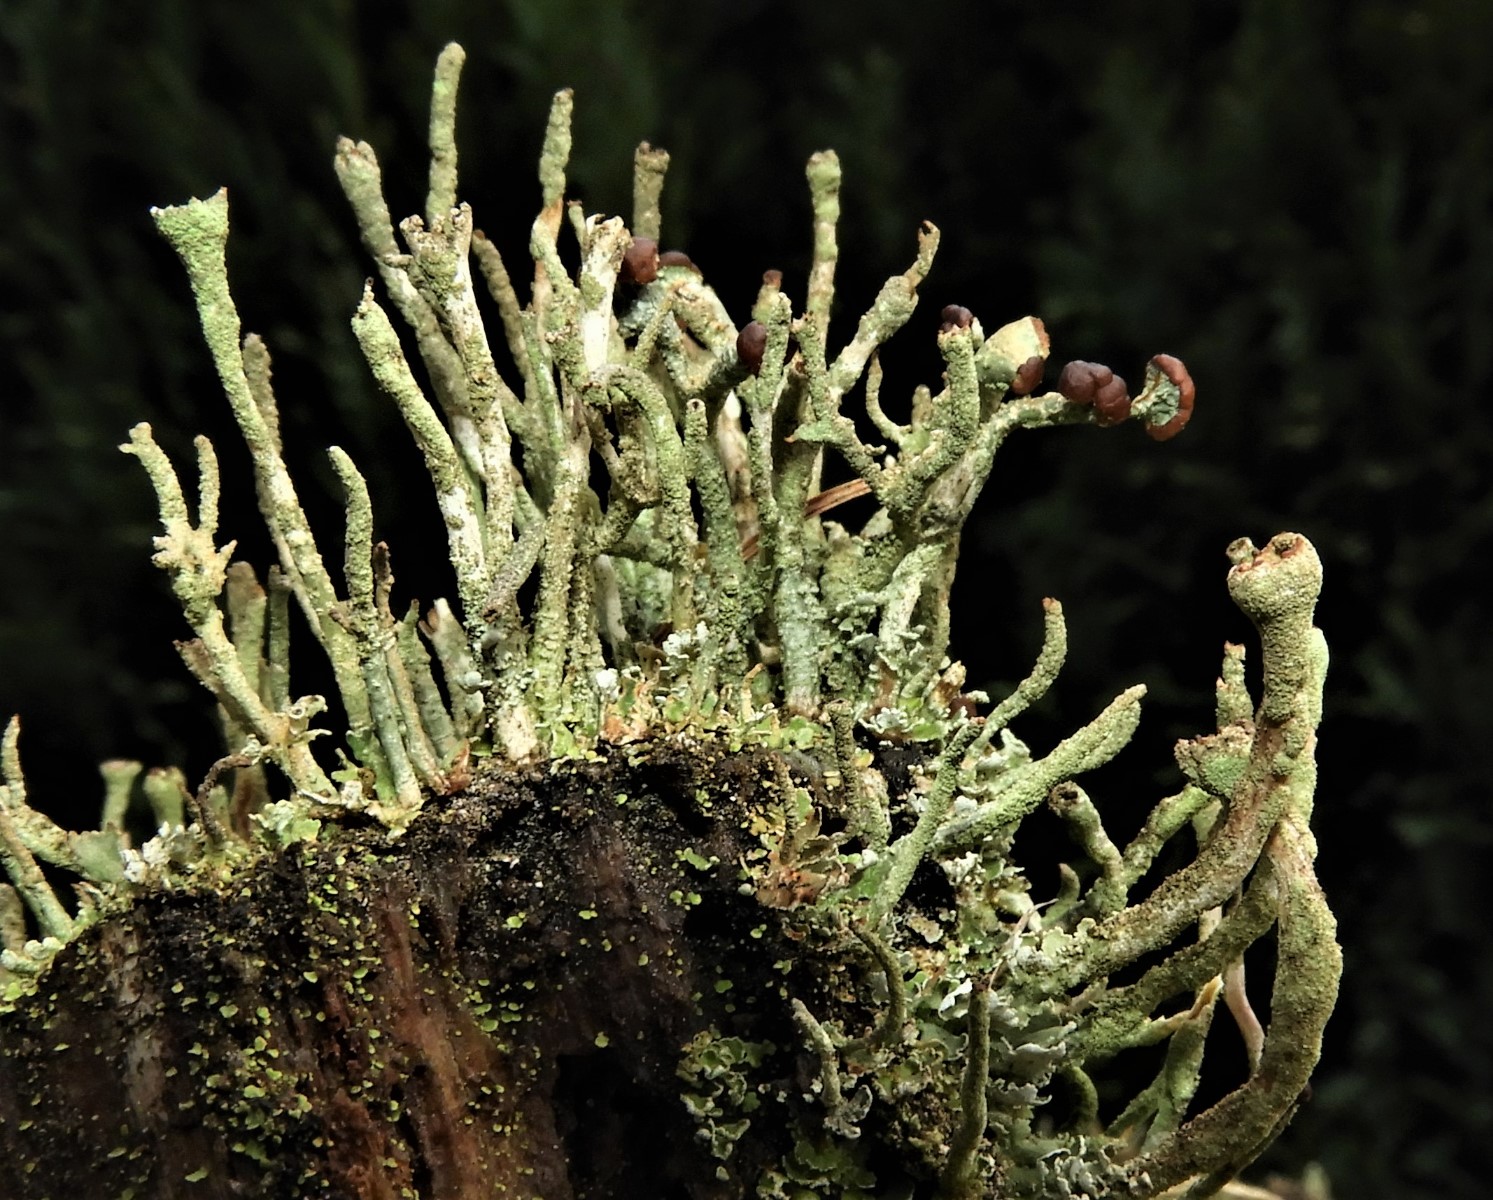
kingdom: Fungi
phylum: Ascomycota
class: Lecanoromycetes
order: Lecanorales
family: Cladoniaceae
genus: Cladonia
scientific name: Cladonia ochrochlora
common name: stød-bægerlav
